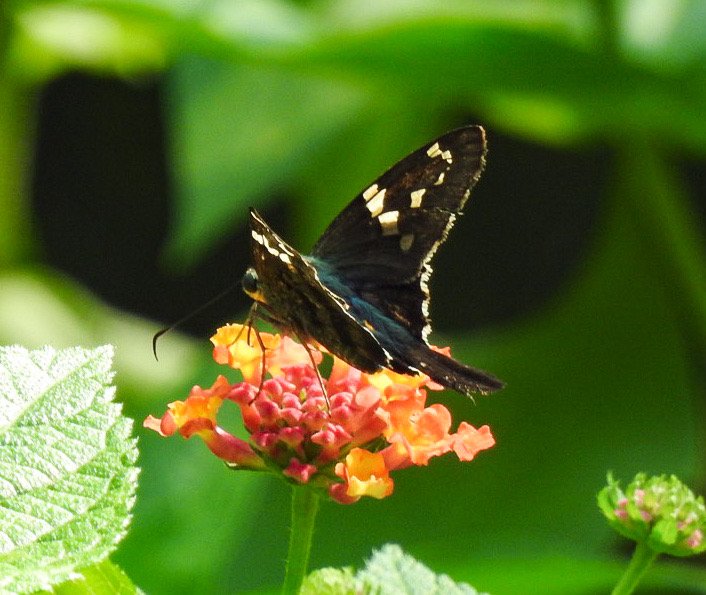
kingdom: Animalia
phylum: Arthropoda
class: Insecta
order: Lepidoptera
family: Hesperiidae
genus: Urbanus
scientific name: Urbanus proteus
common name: Long-tailed Skipper
